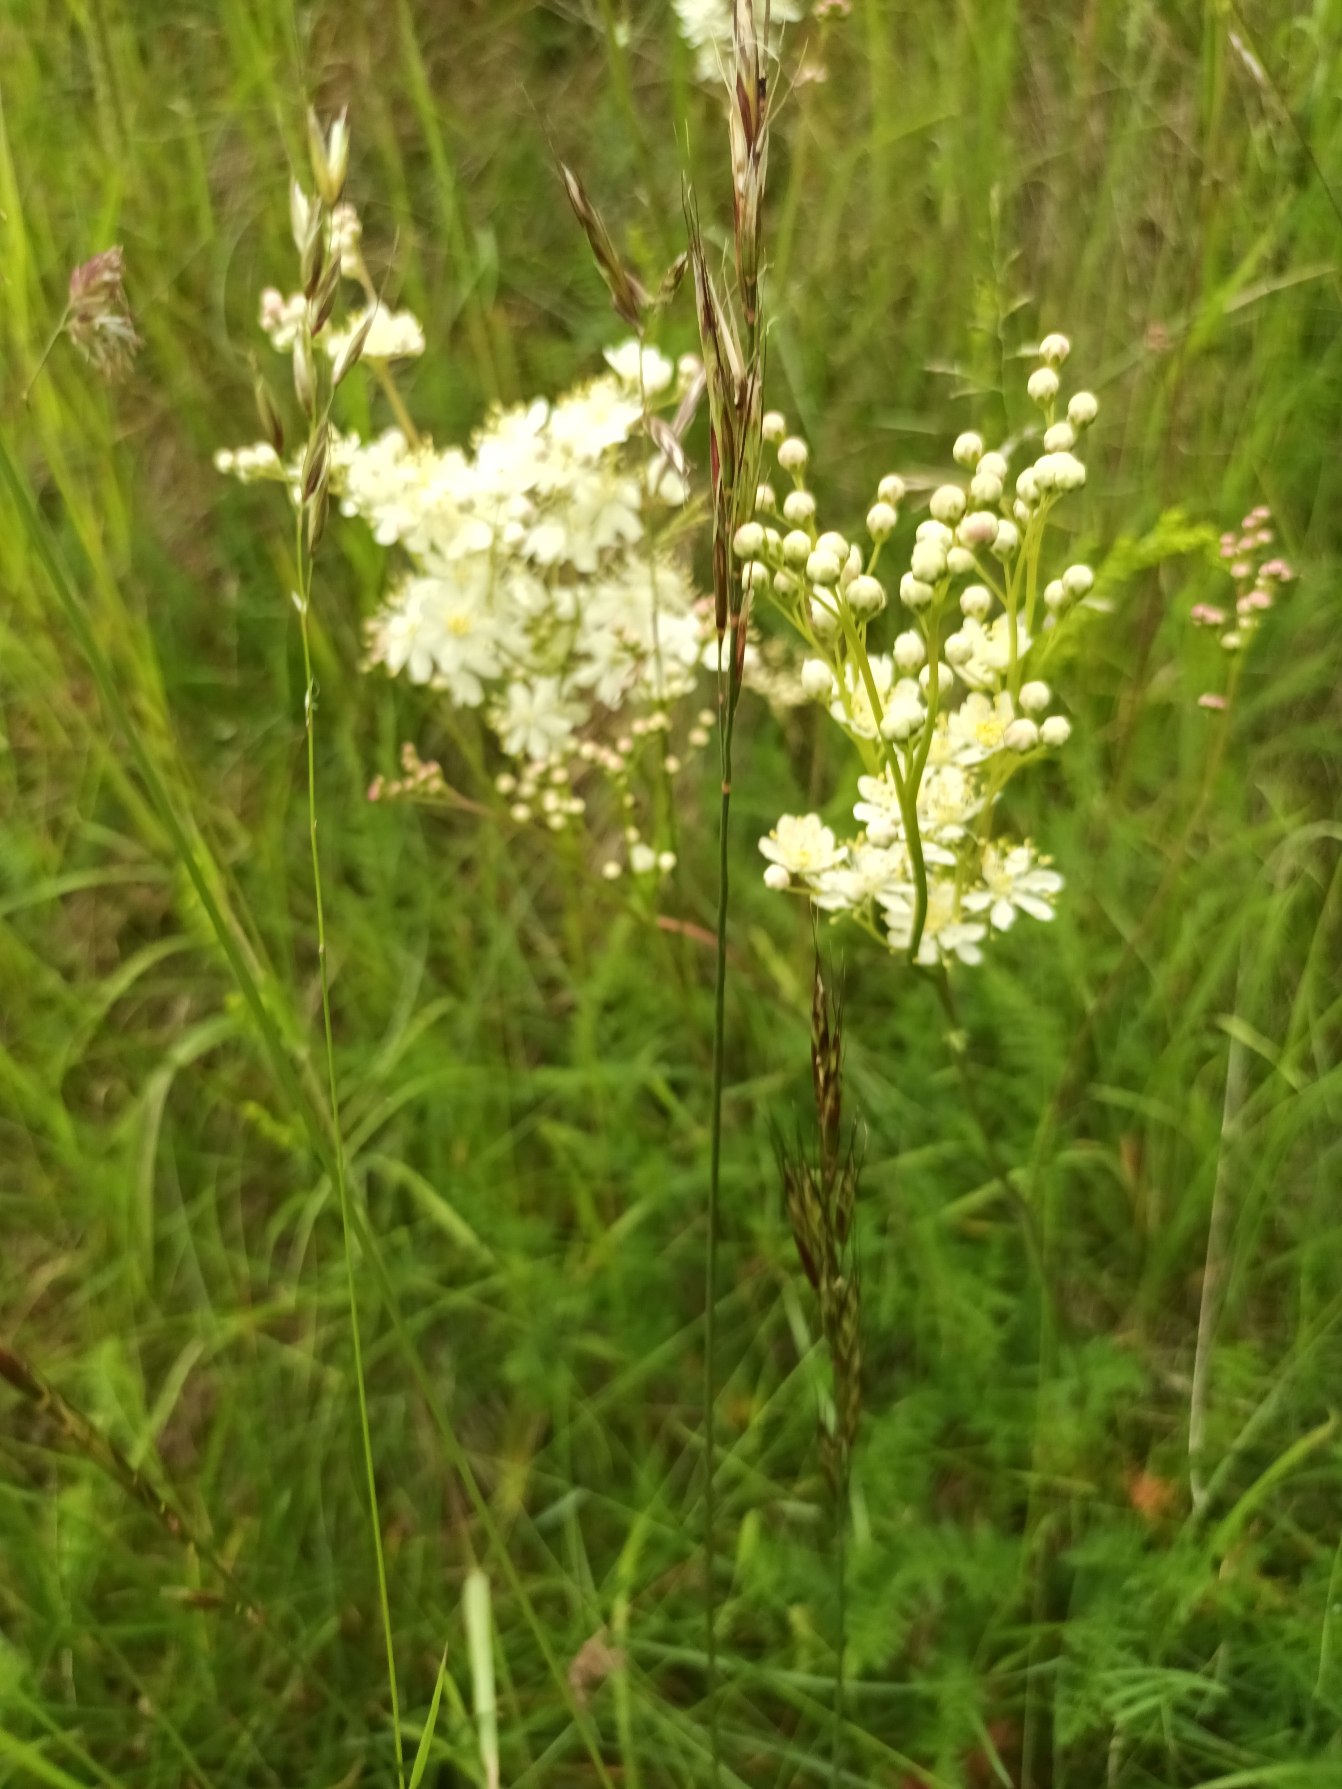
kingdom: Plantae
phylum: Tracheophyta
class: Magnoliopsida
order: Rosales
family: Rosaceae
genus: Filipendula
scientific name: Filipendula vulgaris
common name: Knoldet mjødurt
